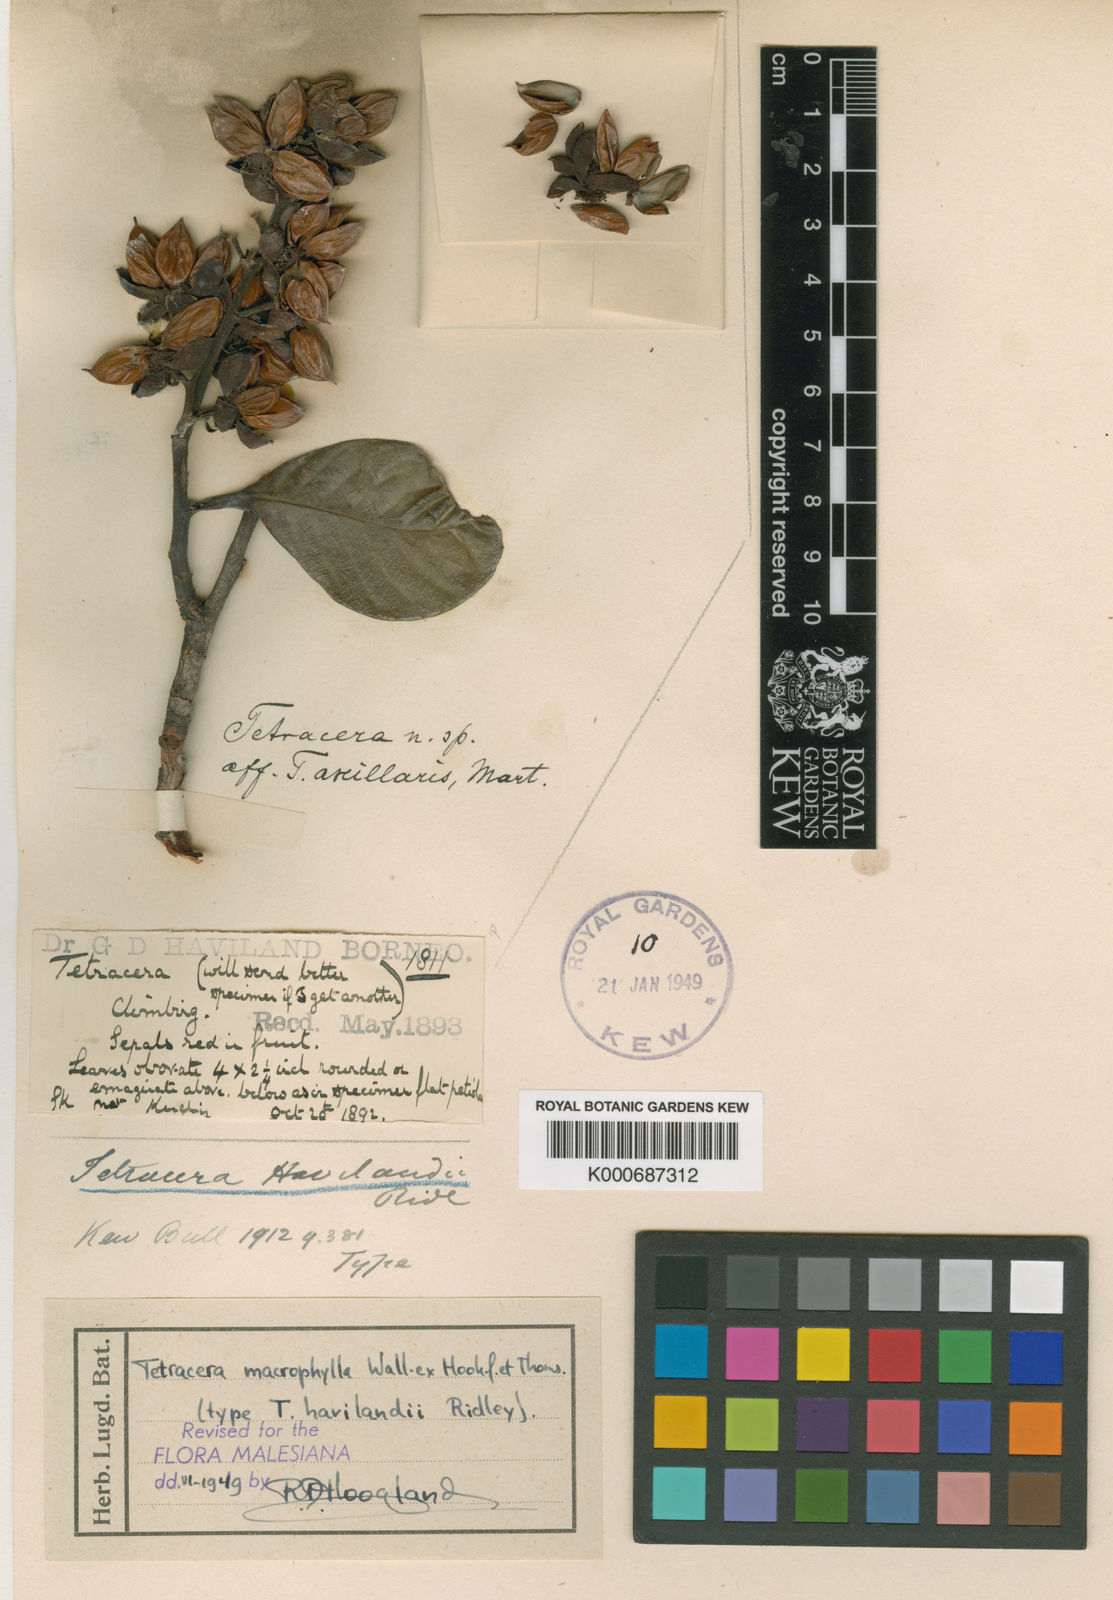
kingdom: Plantae
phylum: Tracheophyta
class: Magnoliopsida
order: Dilleniales
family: Dilleniaceae
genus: Tetracera
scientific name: Tetracera macrophylla
